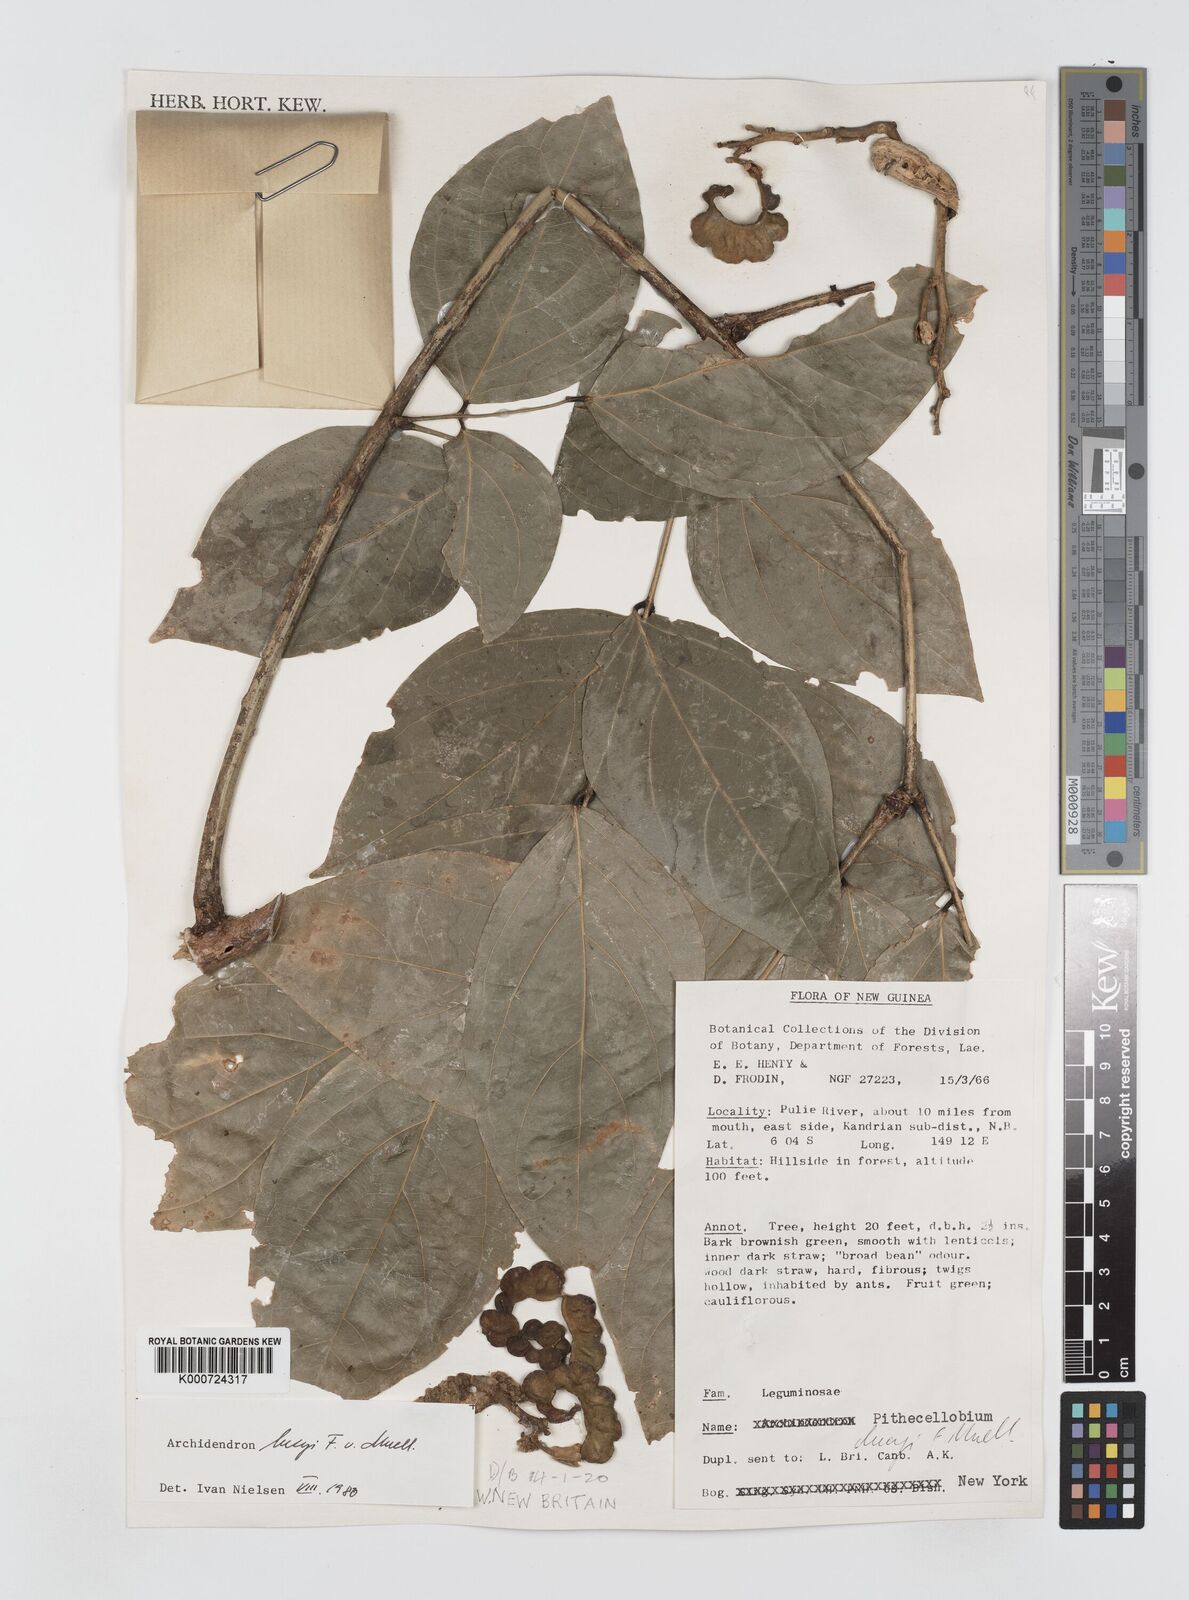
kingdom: Plantae
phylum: Tracheophyta
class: Magnoliopsida
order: Fabales
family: Fabaceae
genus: Archidendron
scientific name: Archidendron lucyi
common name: Scarlet bean
